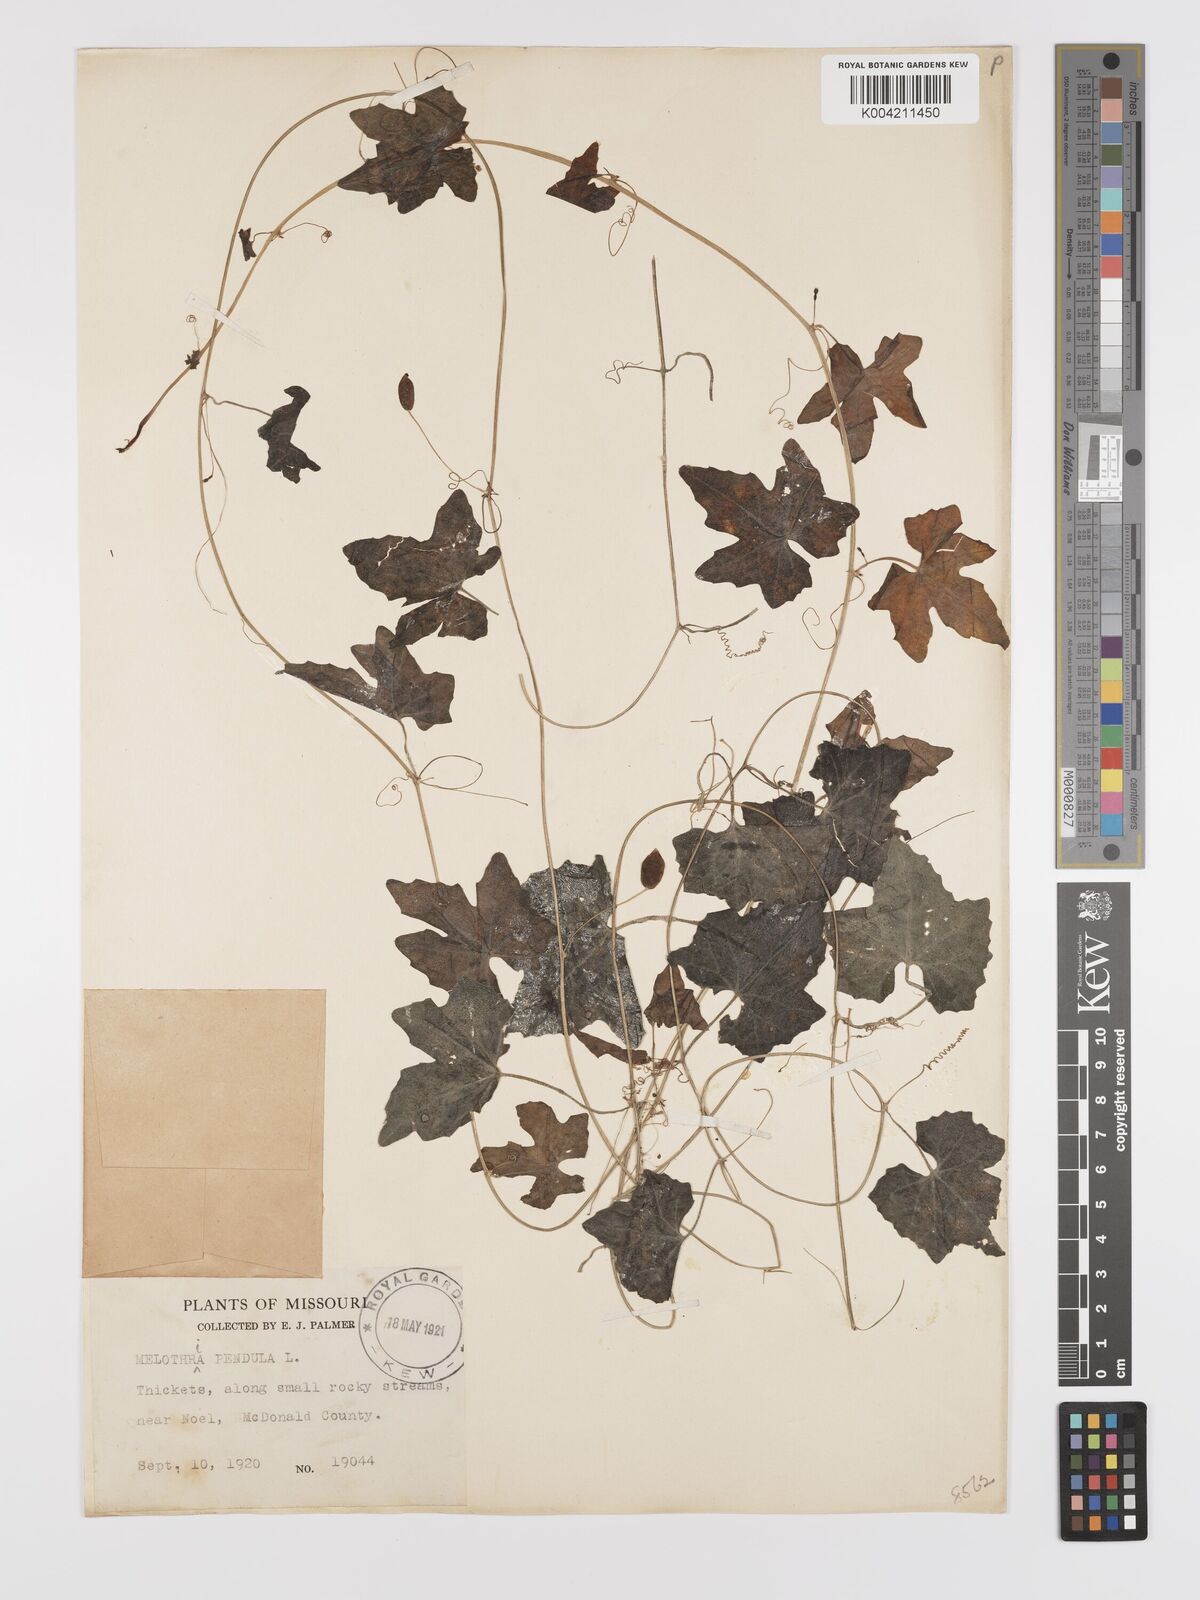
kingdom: Plantae
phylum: Tracheophyta
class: Magnoliopsida
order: Cucurbitales
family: Cucurbitaceae
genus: Melothria
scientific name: Melothria pendula
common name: Creeping-cucumber
